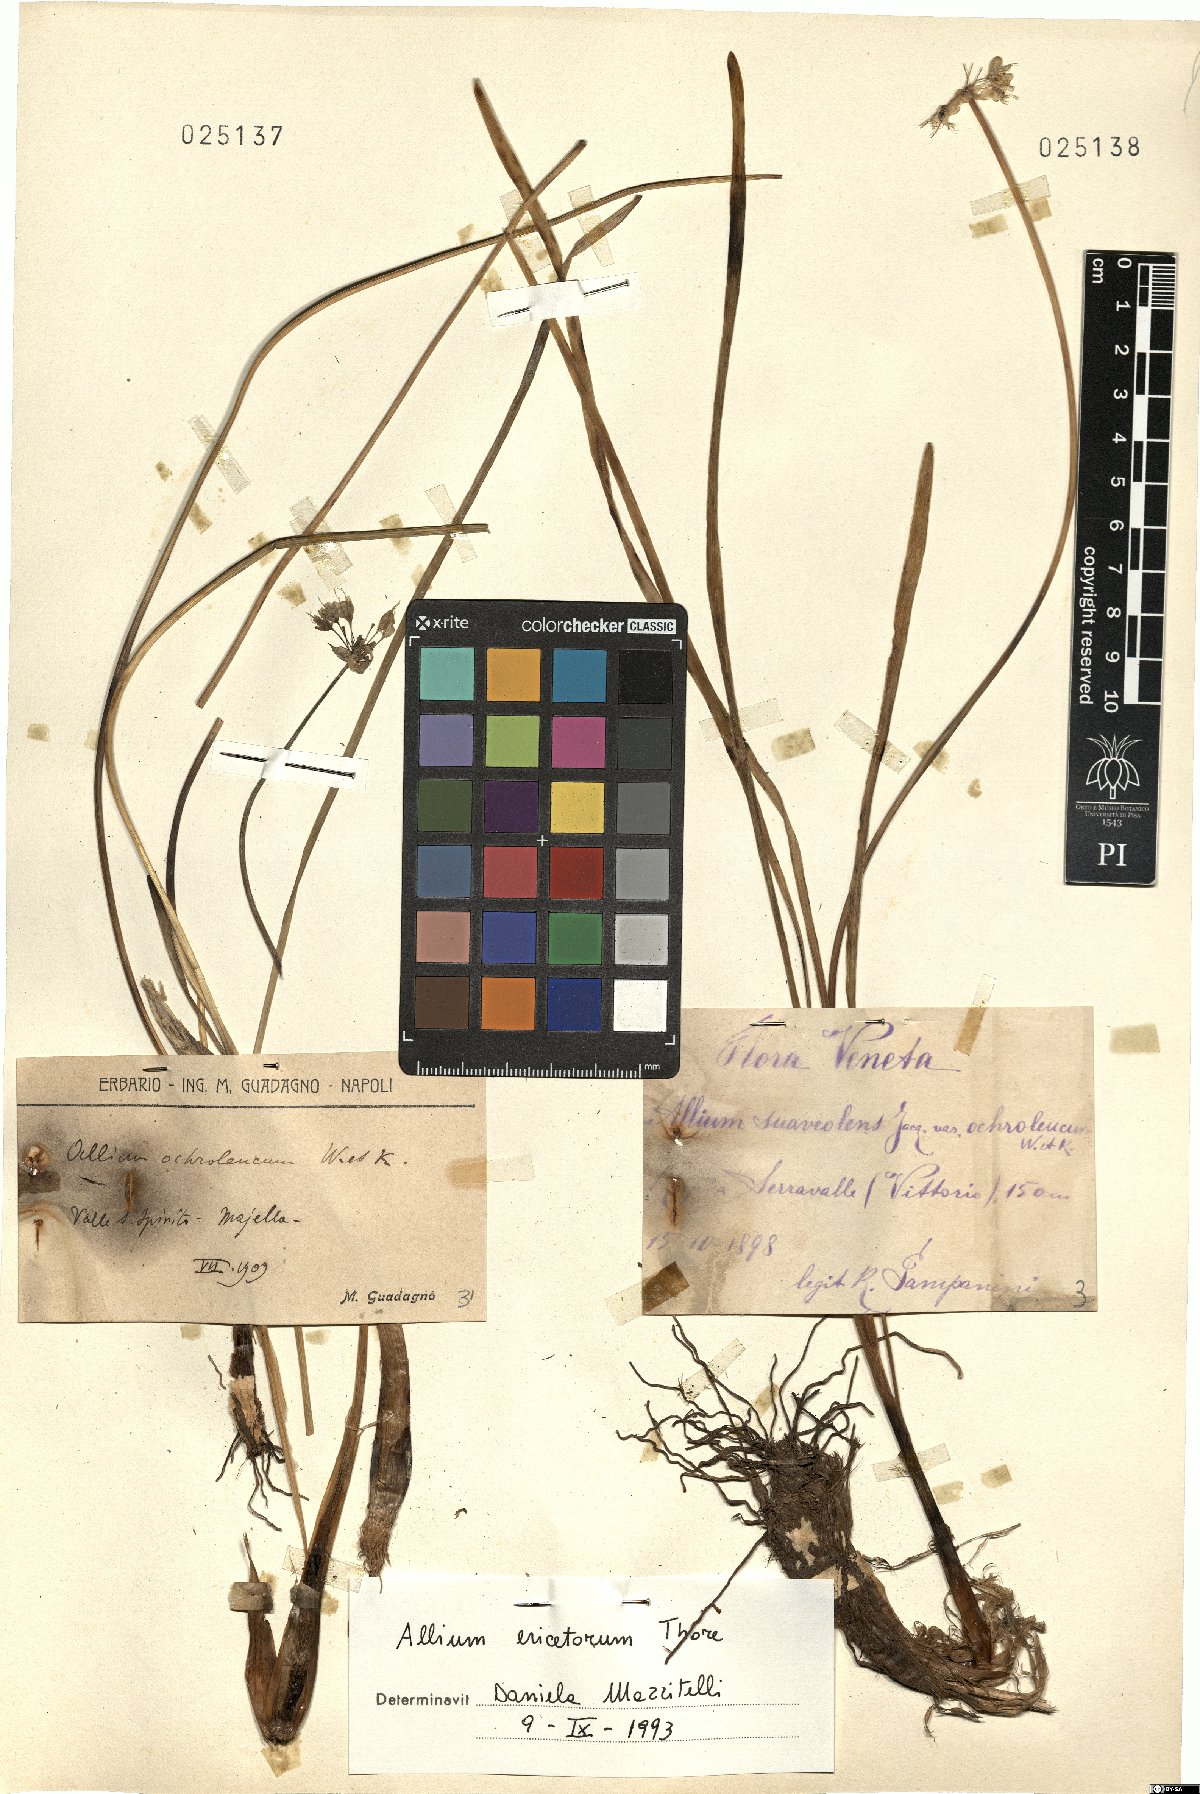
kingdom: Plantae
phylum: Tracheophyta
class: Liliopsida
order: Asparagales
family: Amaryllidaceae
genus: Allium
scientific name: Allium ericetorum
